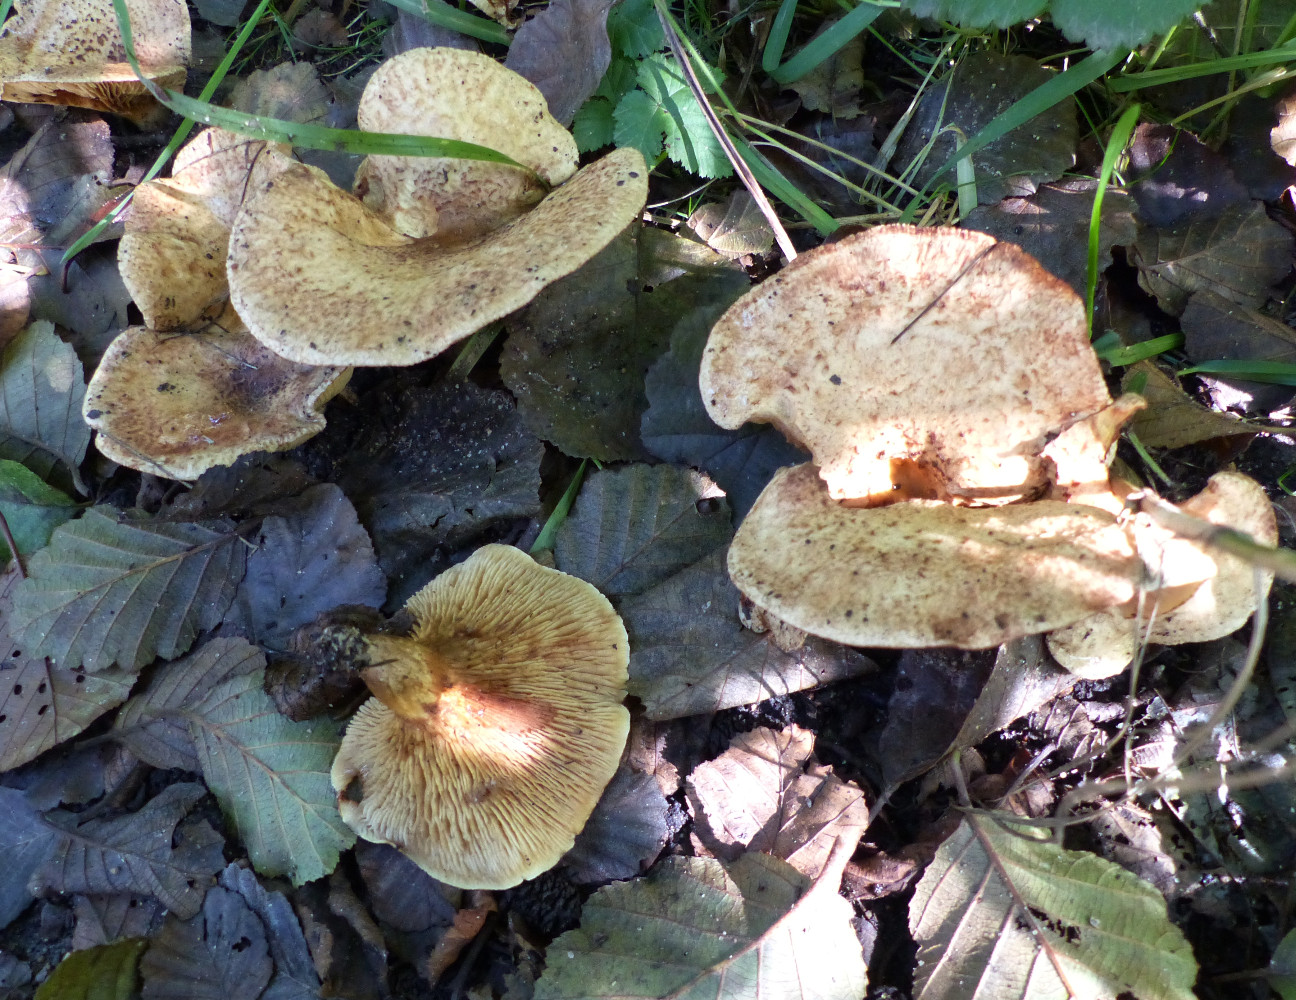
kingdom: Fungi
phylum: Basidiomycota
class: Agaricomycetes
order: Boletales
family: Paxillaceae
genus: Paxillus
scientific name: Paxillus rubicundulus
